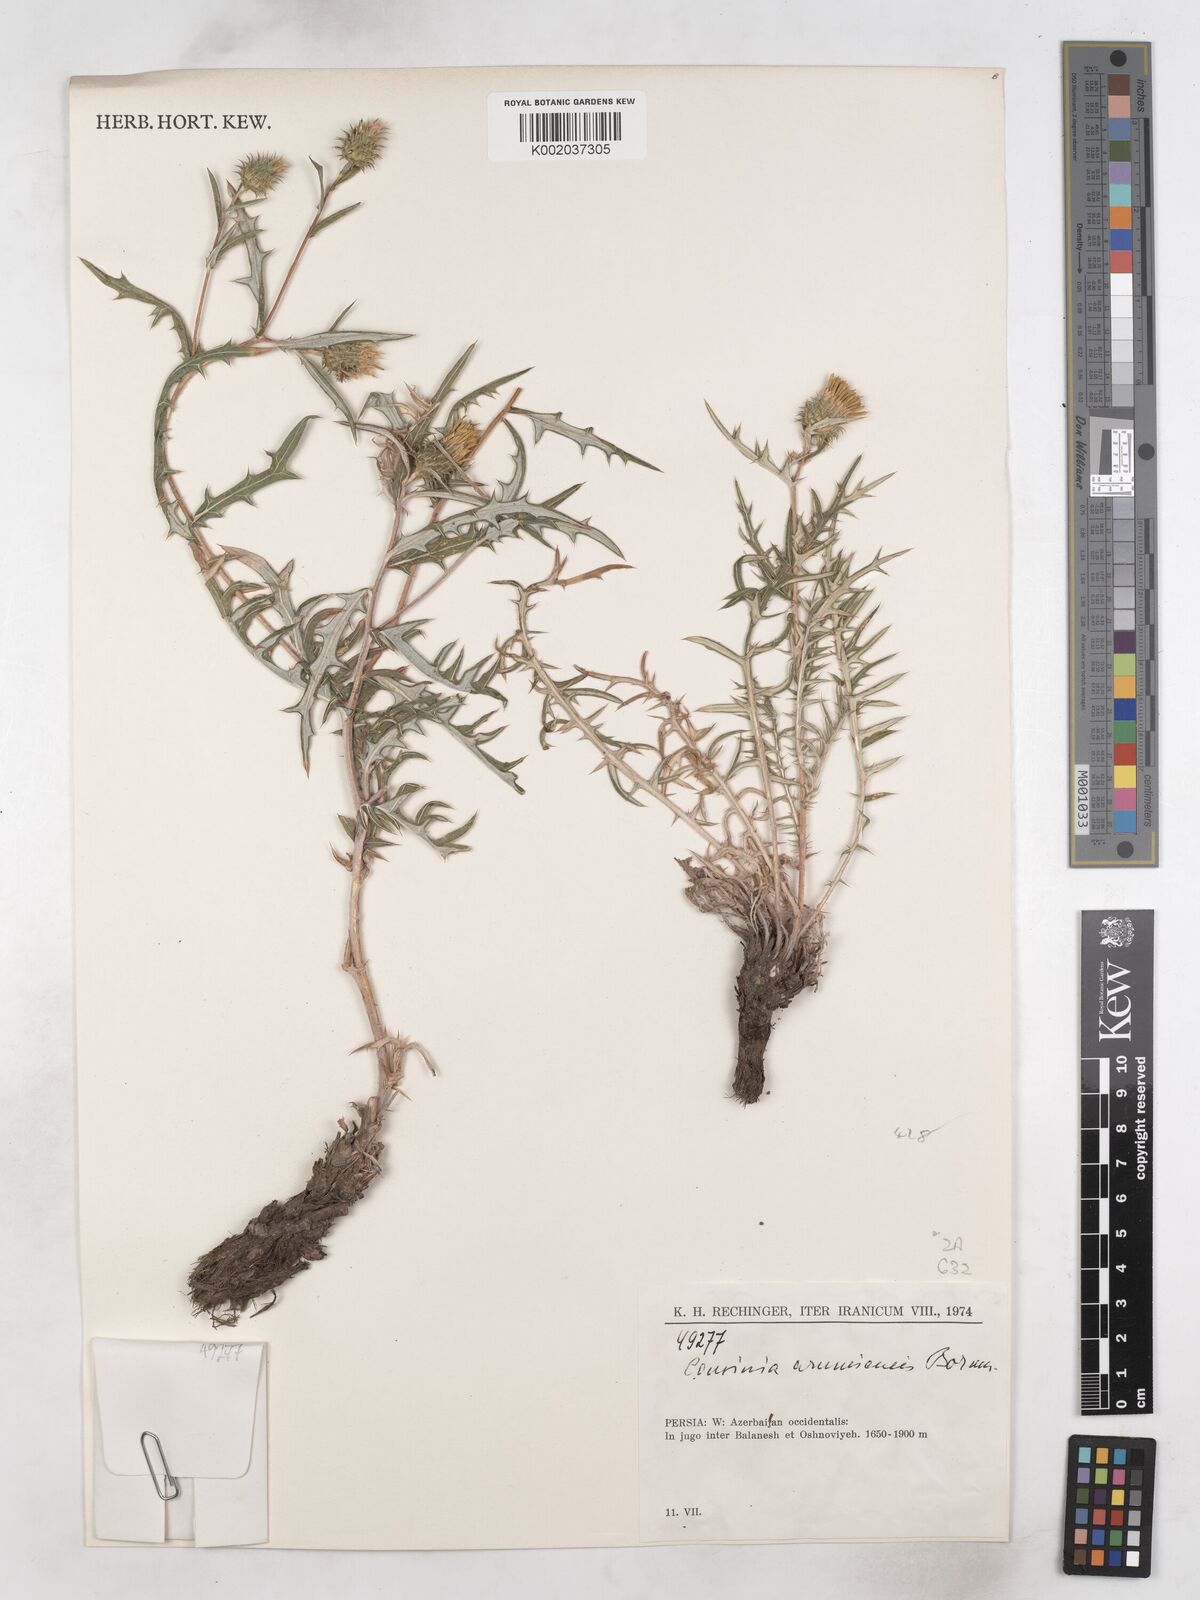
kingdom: Plantae
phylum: Tracheophyta
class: Magnoliopsida
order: Asterales
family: Asteraceae
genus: Cousinia
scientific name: Cousinia urumiensis
